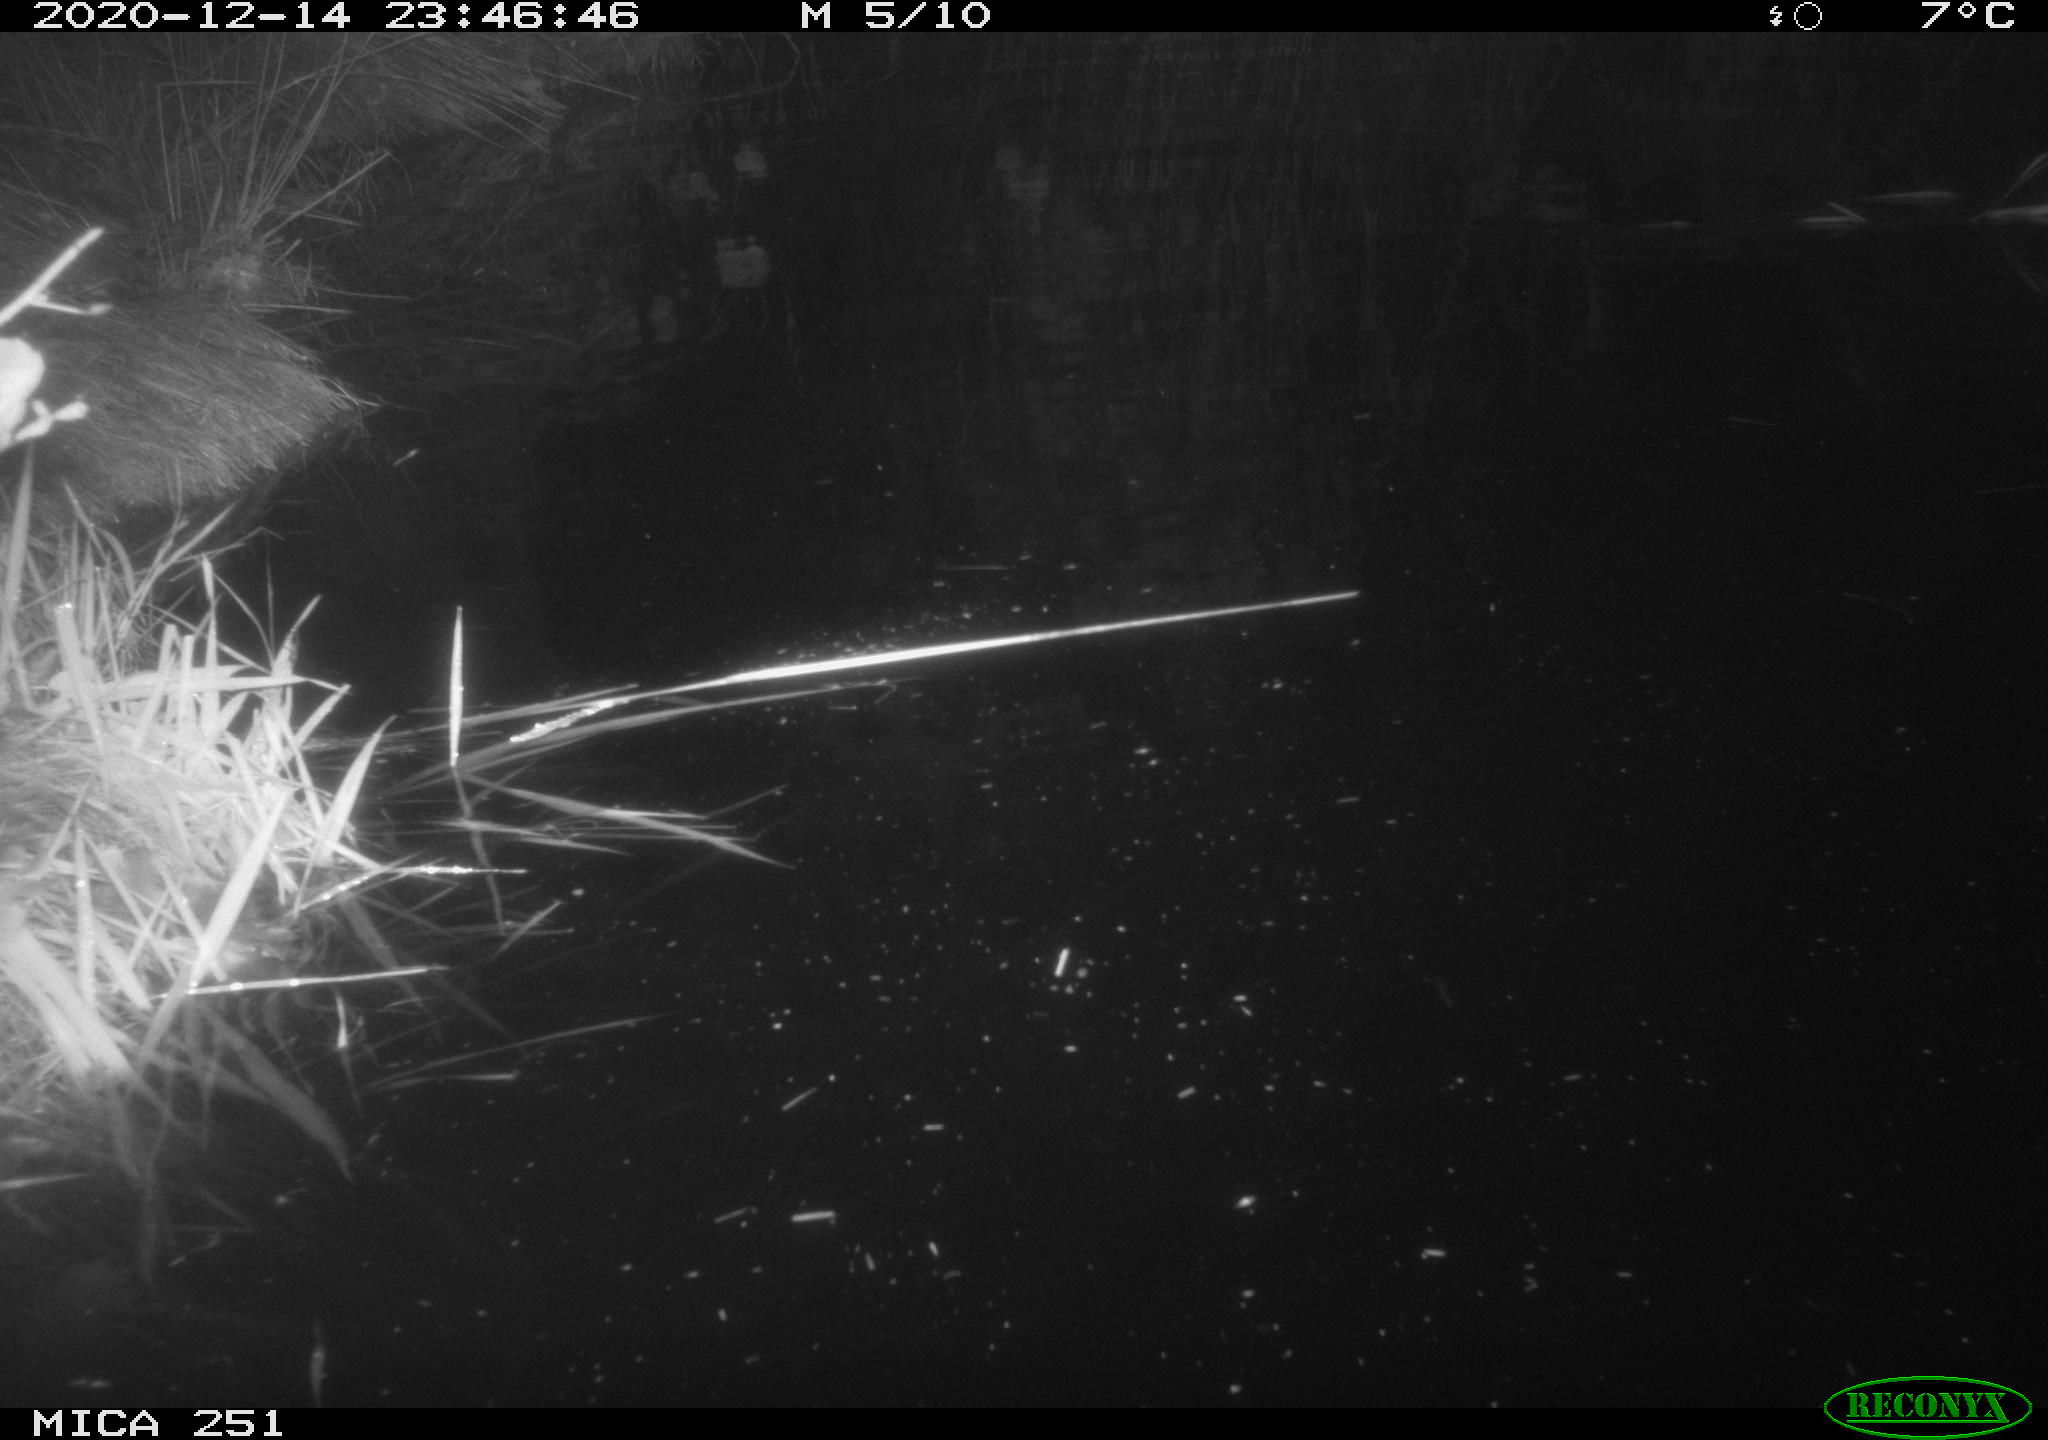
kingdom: Animalia
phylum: Chordata
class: Aves
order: Anseriformes
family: Anatidae
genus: Anas
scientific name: Anas platyrhynchos
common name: Mallard
